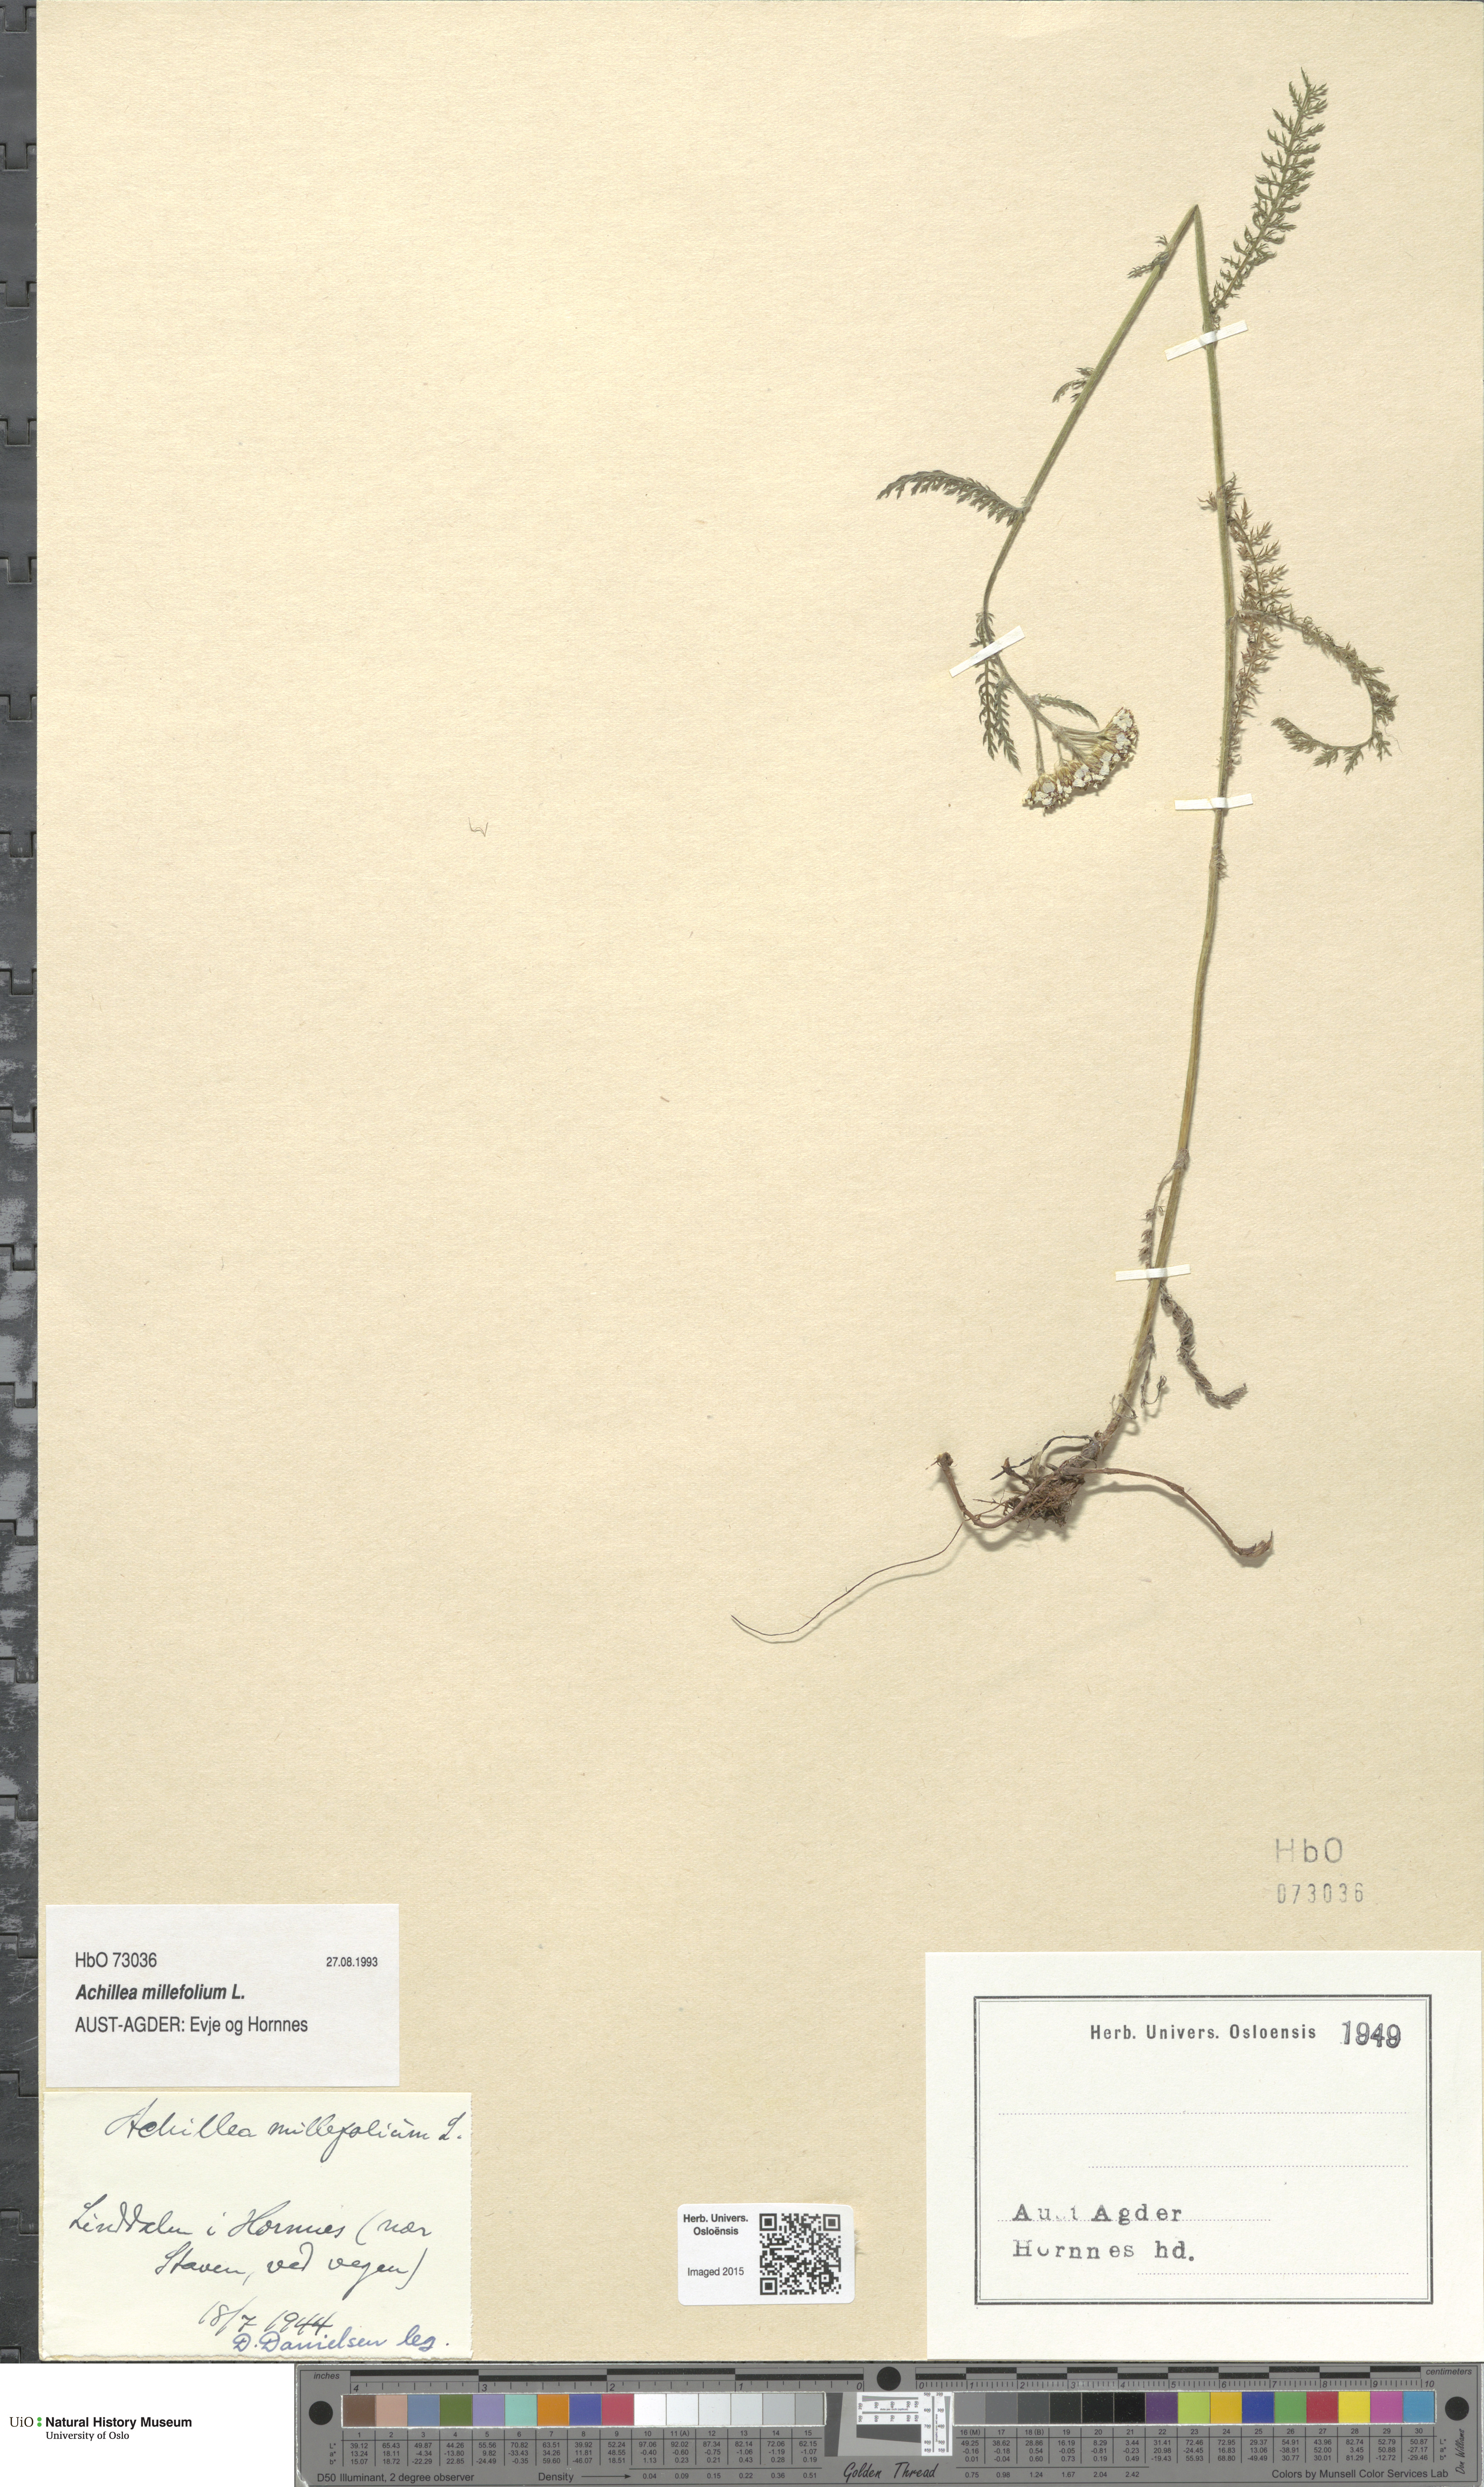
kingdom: Plantae
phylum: Tracheophyta
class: Magnoliopsida
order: Asterales
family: Asteraceae
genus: Achillea
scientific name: Achillea millefolium
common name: Yarrow
